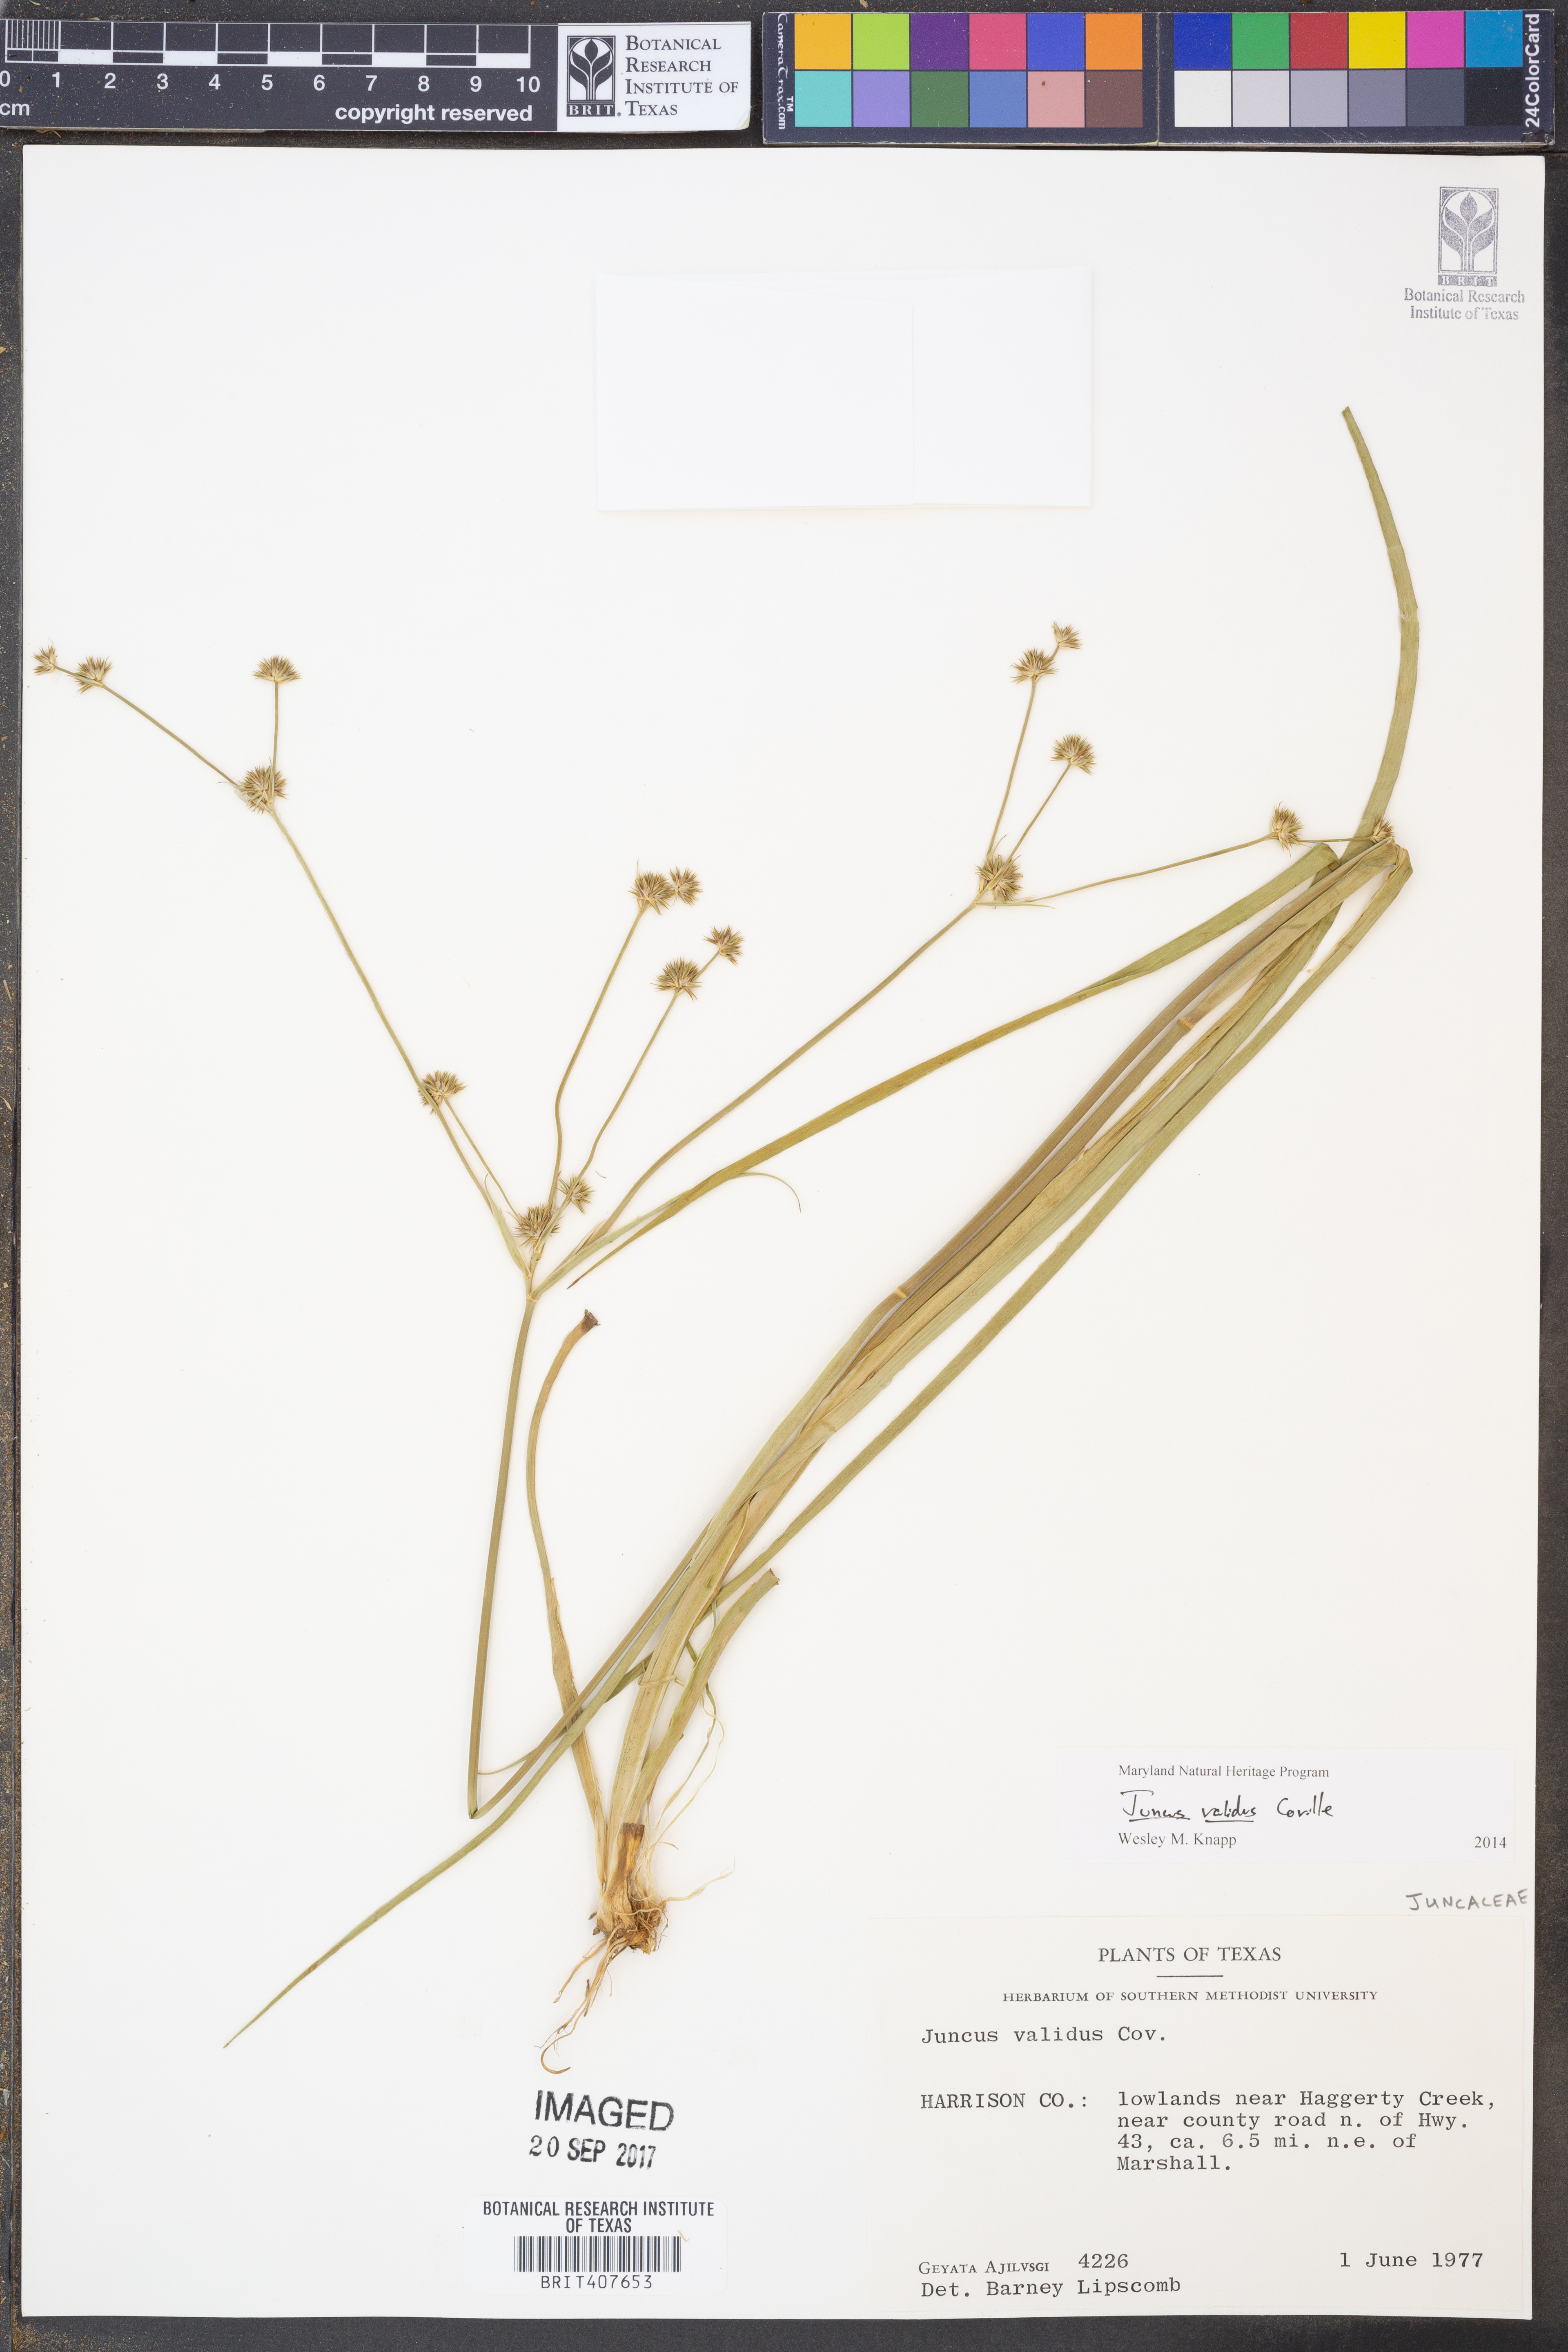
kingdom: Plantae
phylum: Tracheophyta
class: Liliopsida
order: Poales
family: Juncaceae
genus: Juncus
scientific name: Juncus validus
